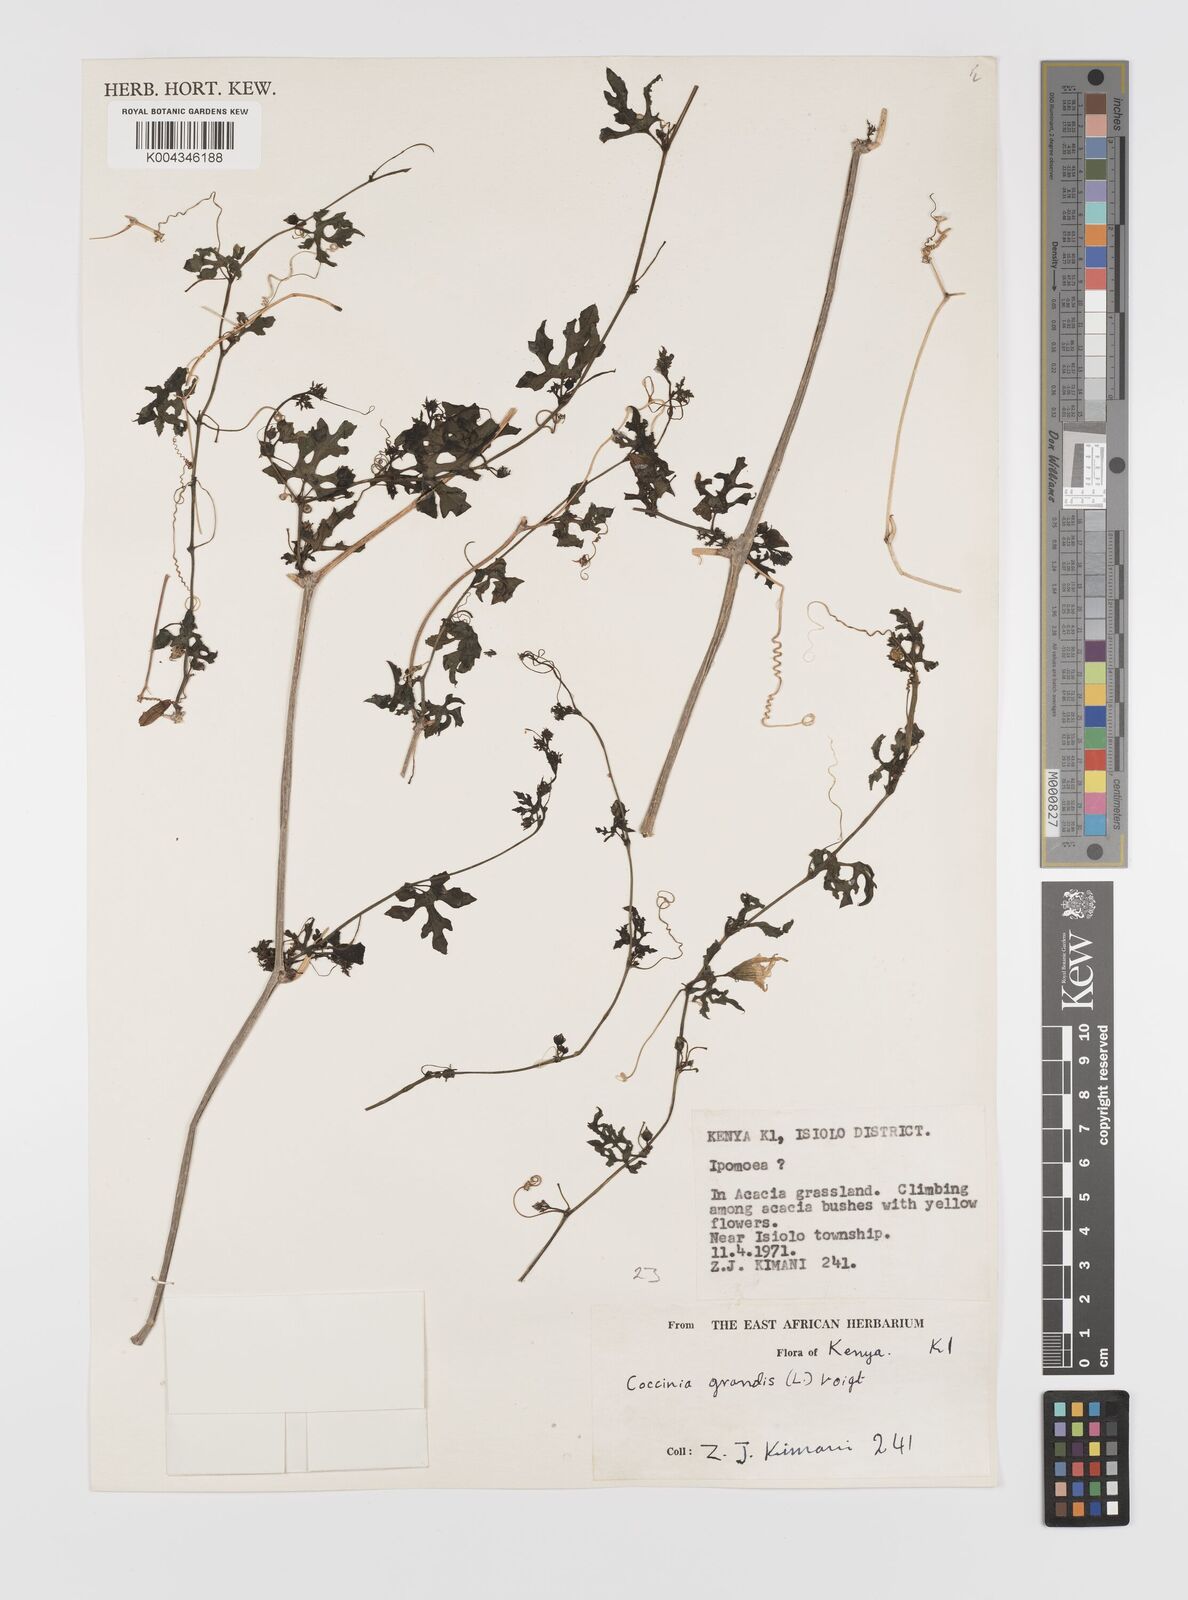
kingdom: Plantae
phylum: Tracheophyta
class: Magnoliopsida
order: Cucurbitales
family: Cucurbitaceae
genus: Coccinia
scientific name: Coccinia grandis
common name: Ivy gourd
